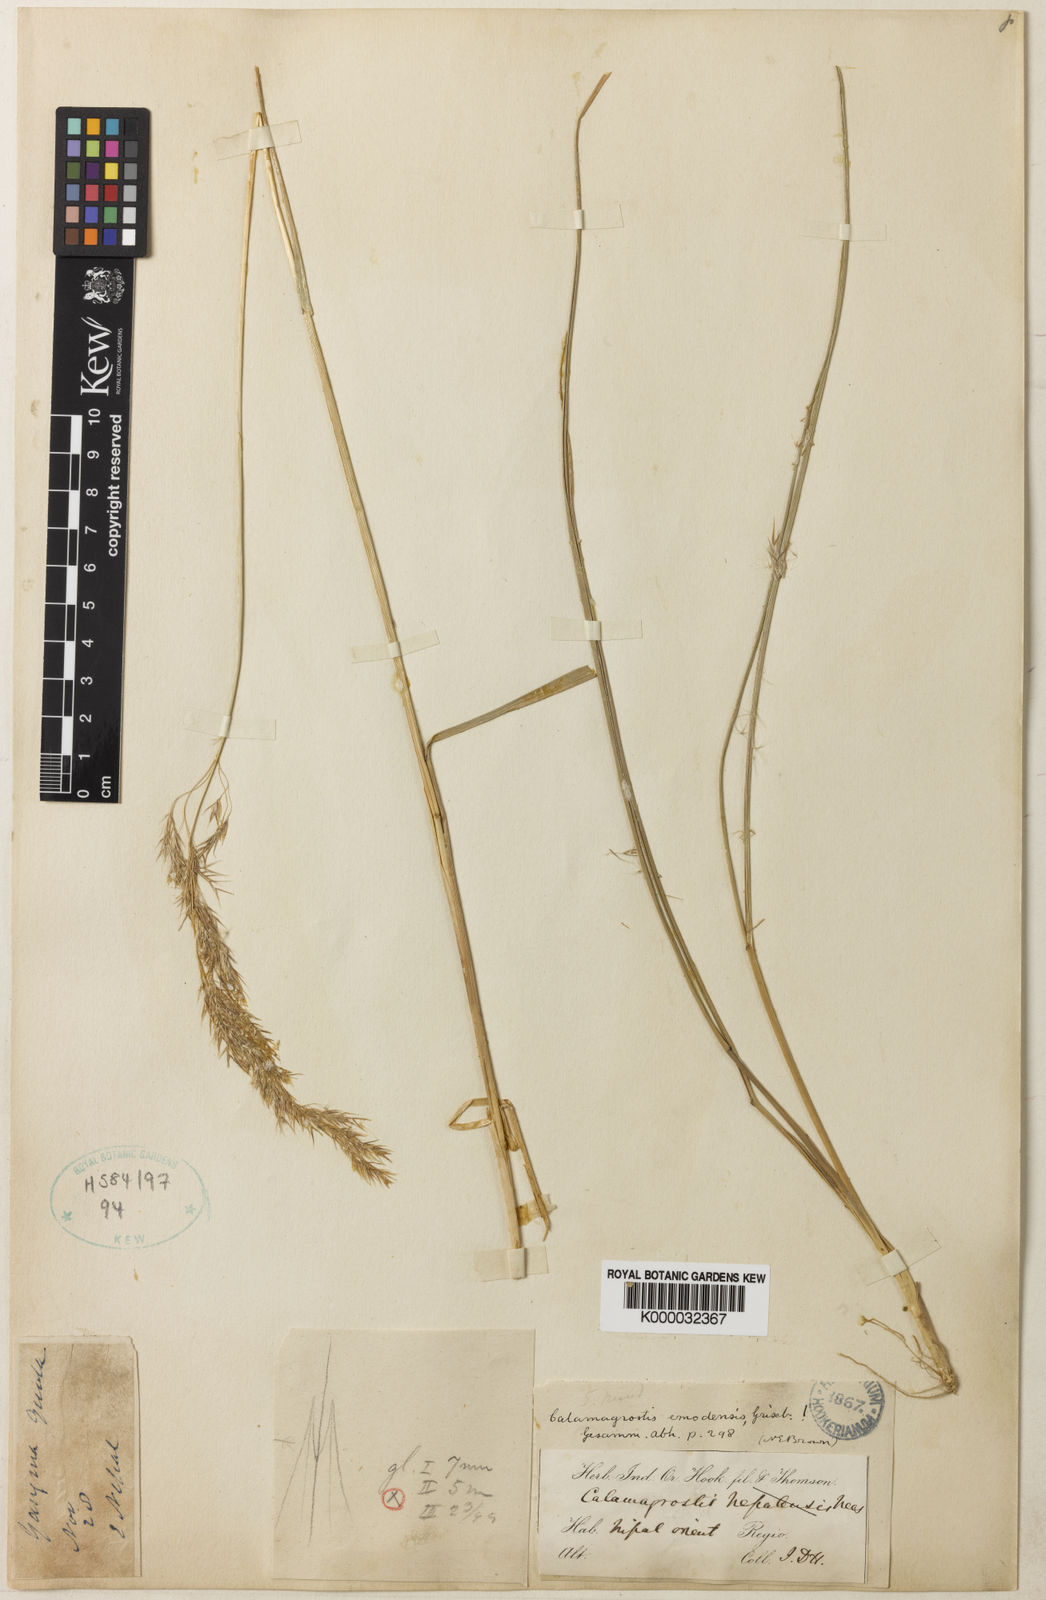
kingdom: Plantae
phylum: Tracheophyta
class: Liliopsida
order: Poales
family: Poaceae
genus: Calamagrostis
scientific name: Calamagrostis emodensis
